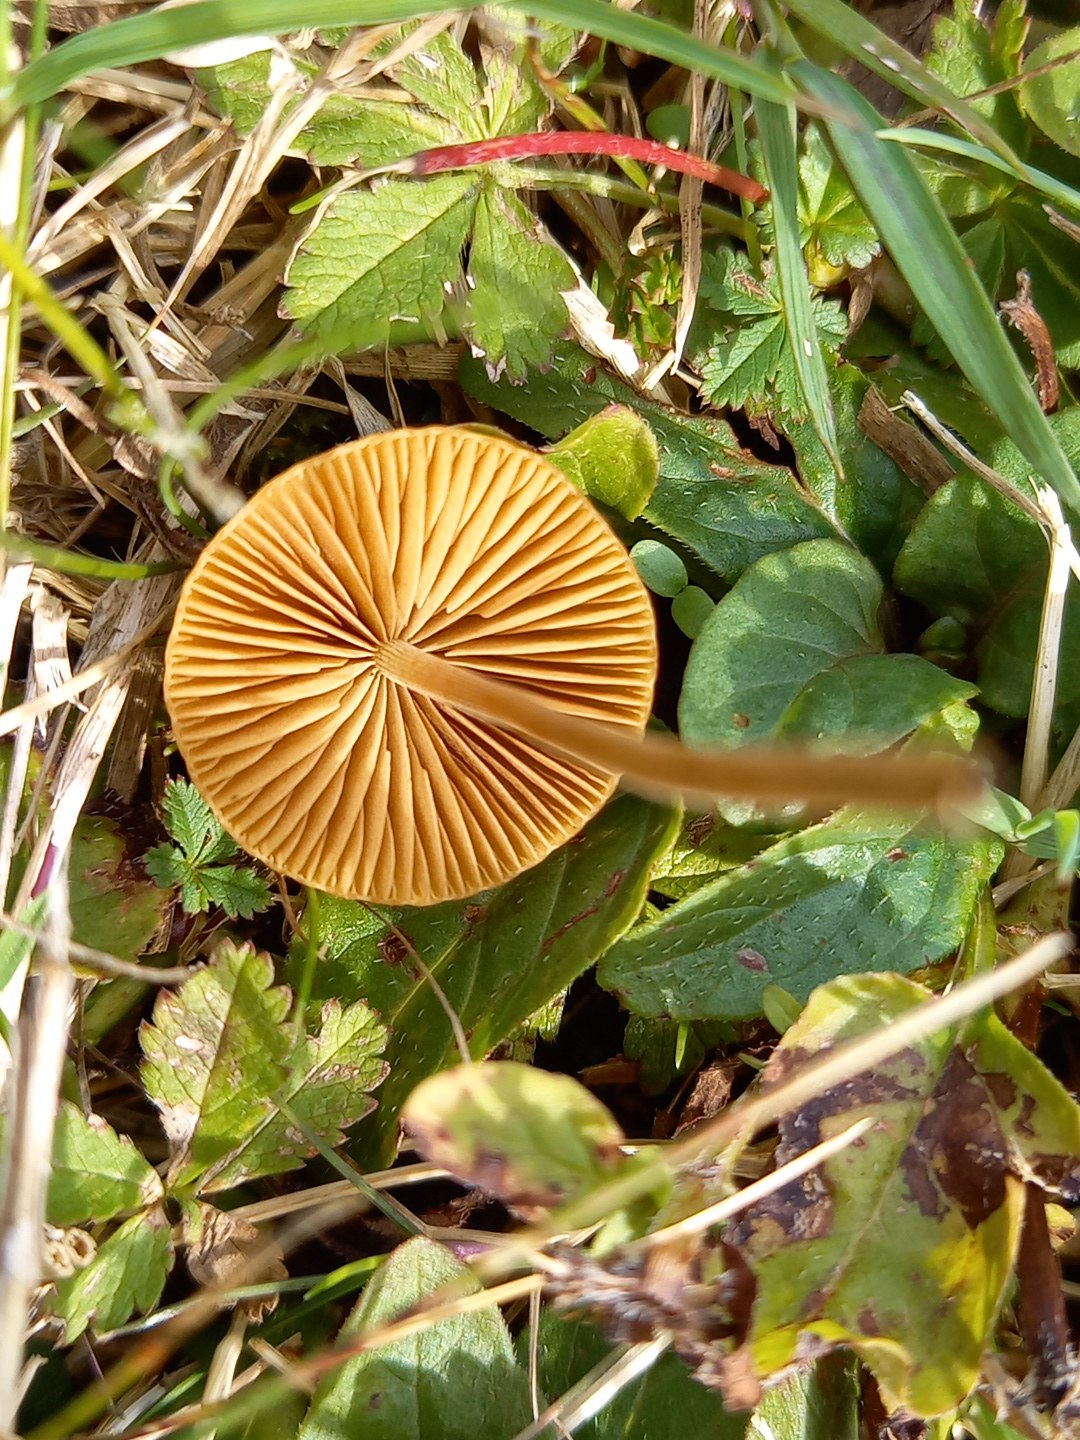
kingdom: Fungi
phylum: Basidiomycota
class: Agaricomycetes
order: Agaricales
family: Bolbitiaceae
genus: Conocybe
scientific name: Conocybe
